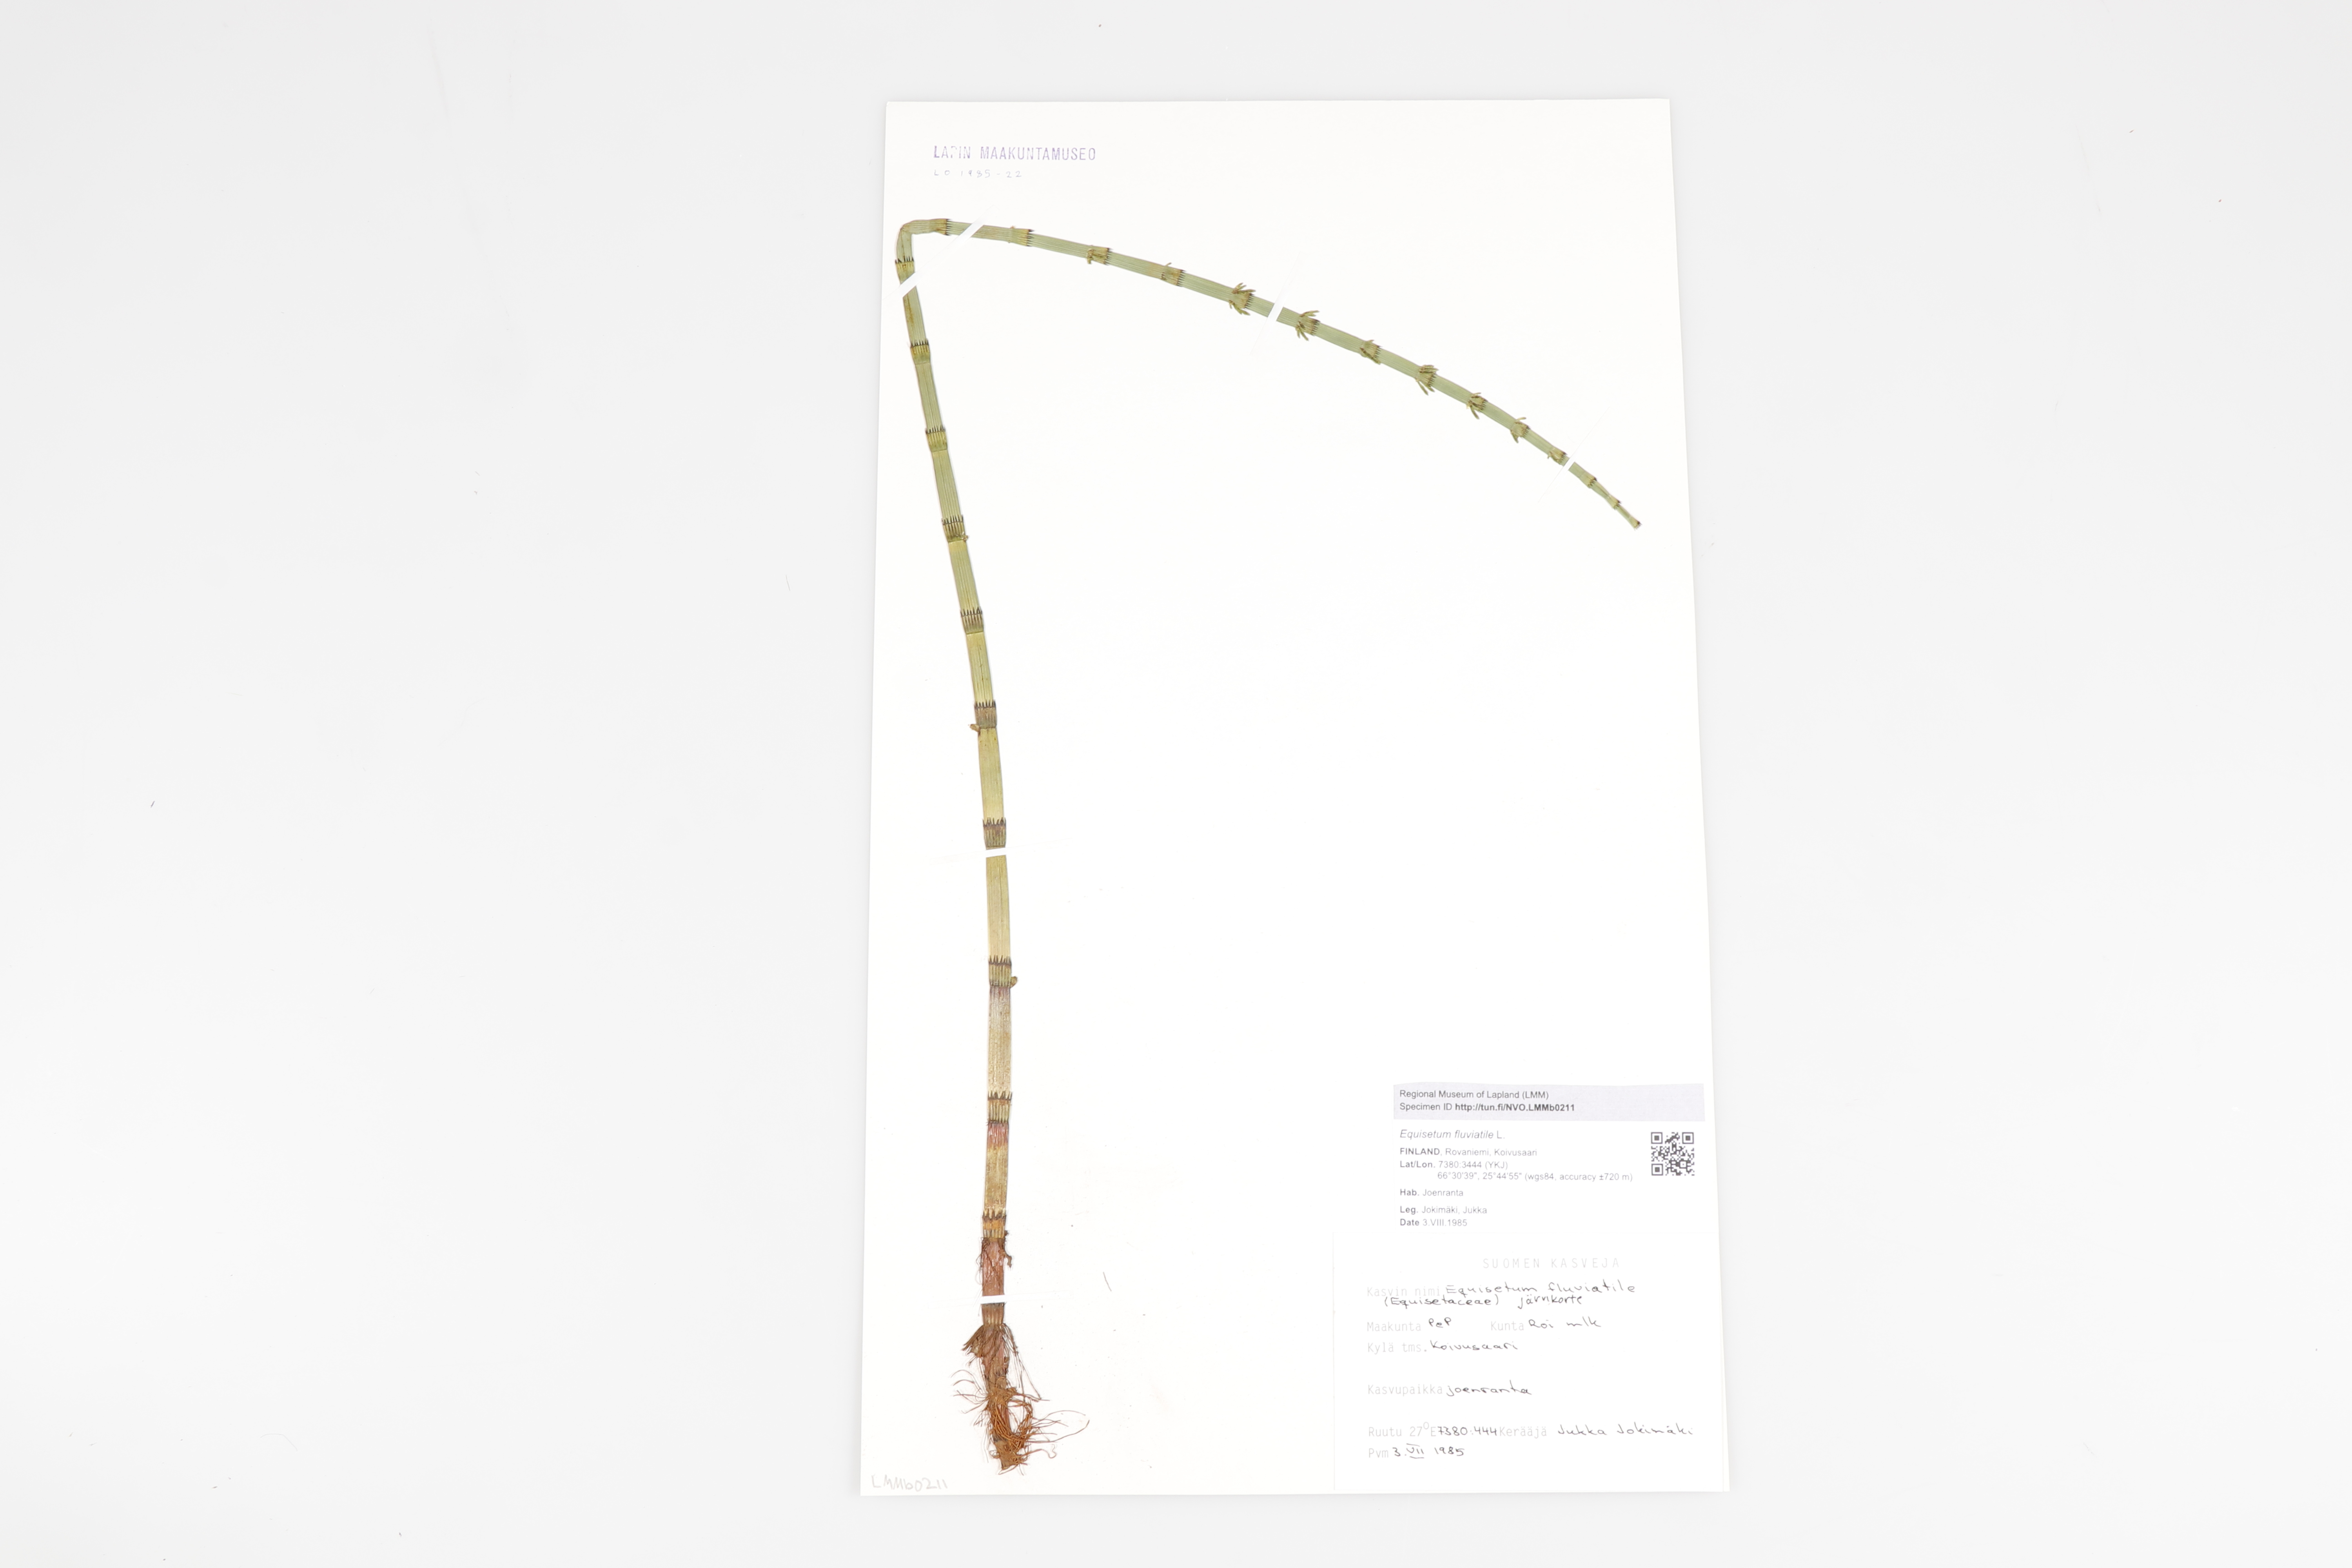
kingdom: Plantae
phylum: Tracheophyta
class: Polypodiopsida
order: Equisetales
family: Equisetaceae
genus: Equisetum
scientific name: Equisetum fluviatile
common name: Water horsetail
